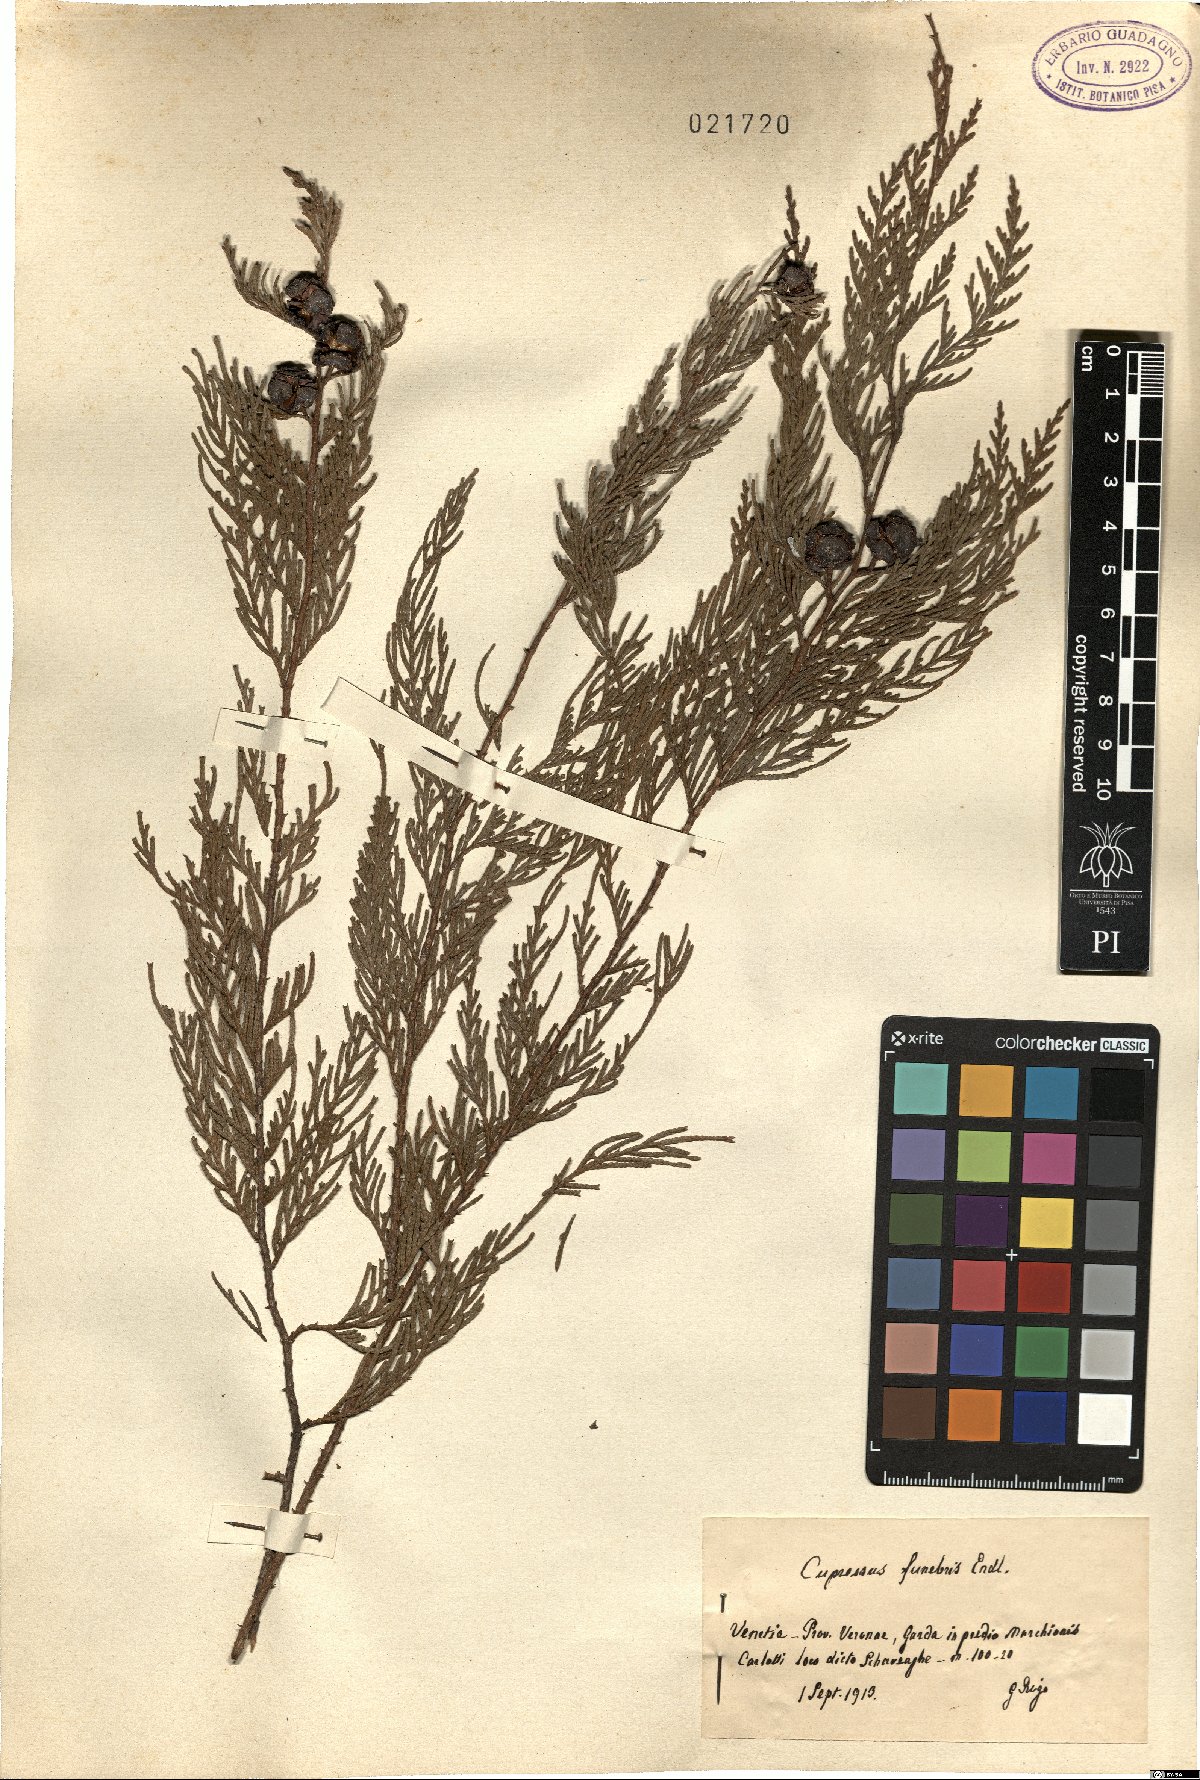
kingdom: Plantae
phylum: Tracheophyta
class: Pinopsida
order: Pinales
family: Cupressaceae
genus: Cupressus
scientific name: Cupressus funebris
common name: Chinese weeping cypress
